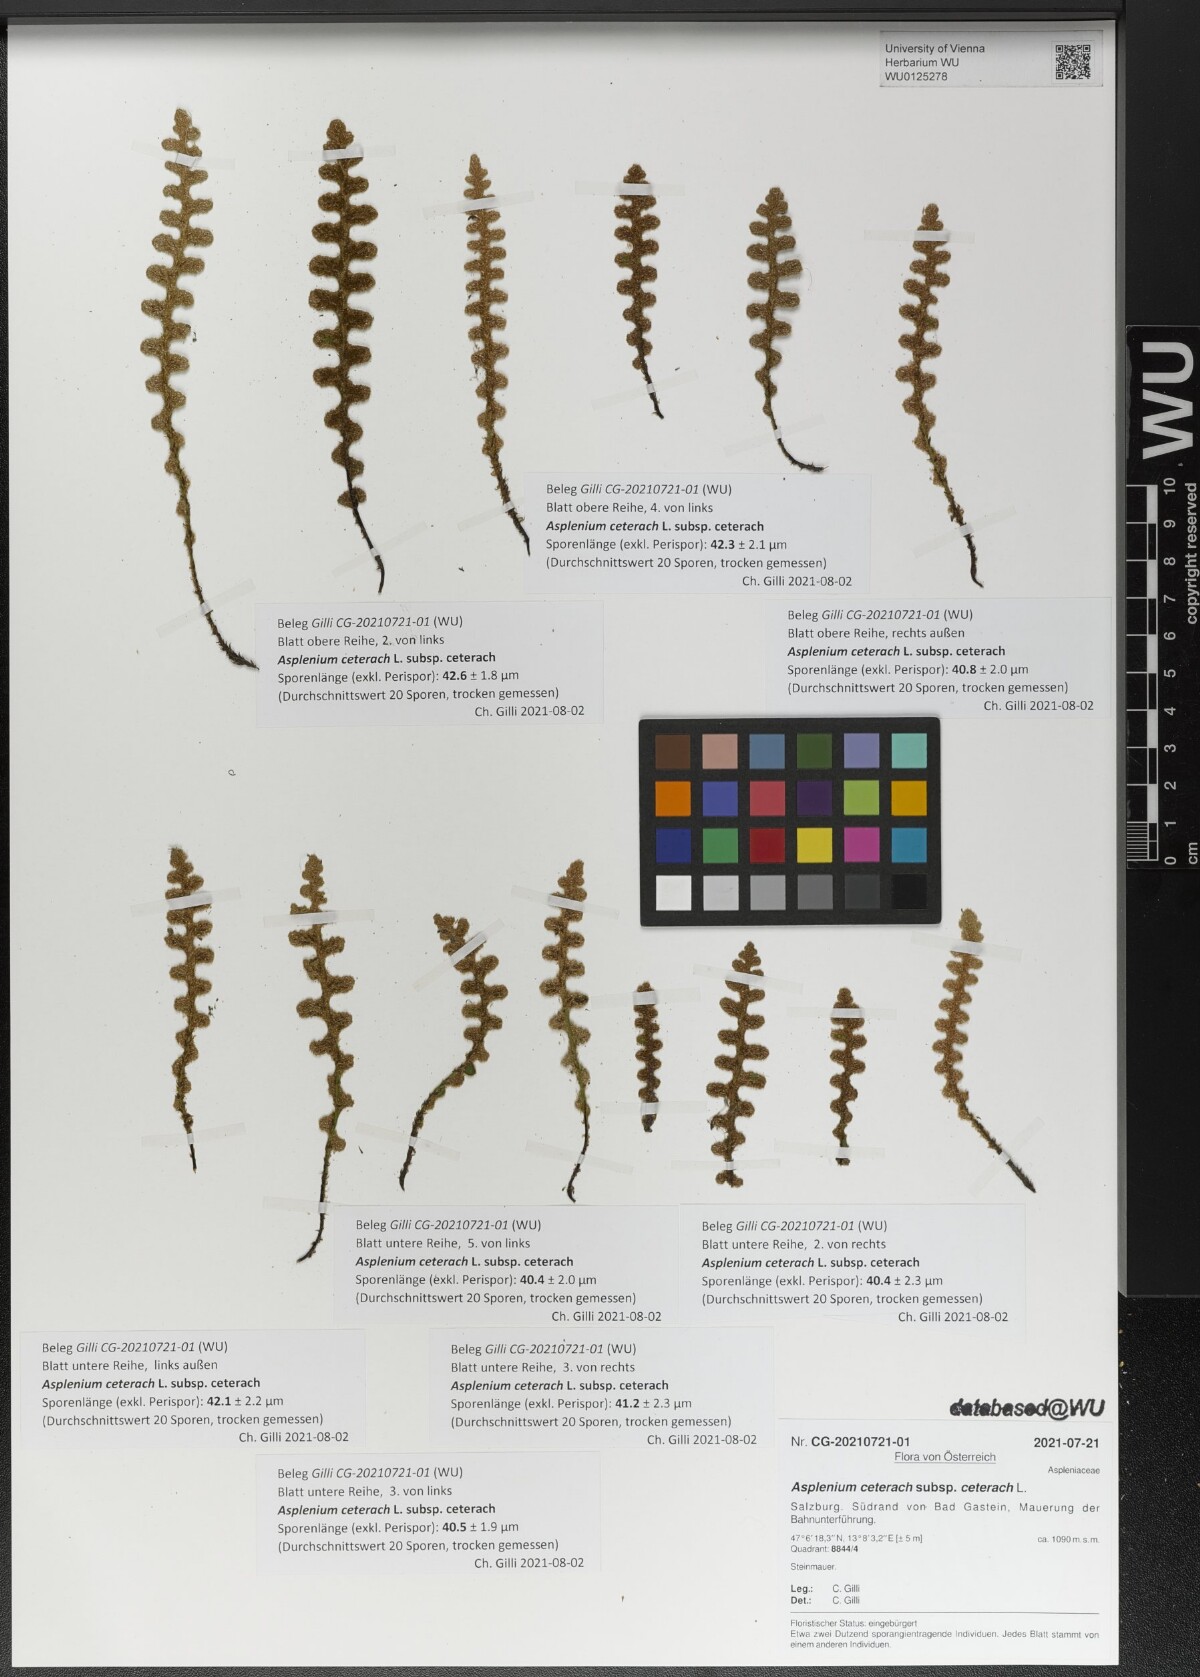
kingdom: Plantae
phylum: Tracheophyta
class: Polypodiopsida
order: Polypodiales
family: Aspleniaceae
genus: Asplenium
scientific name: Asplenium ceterach
